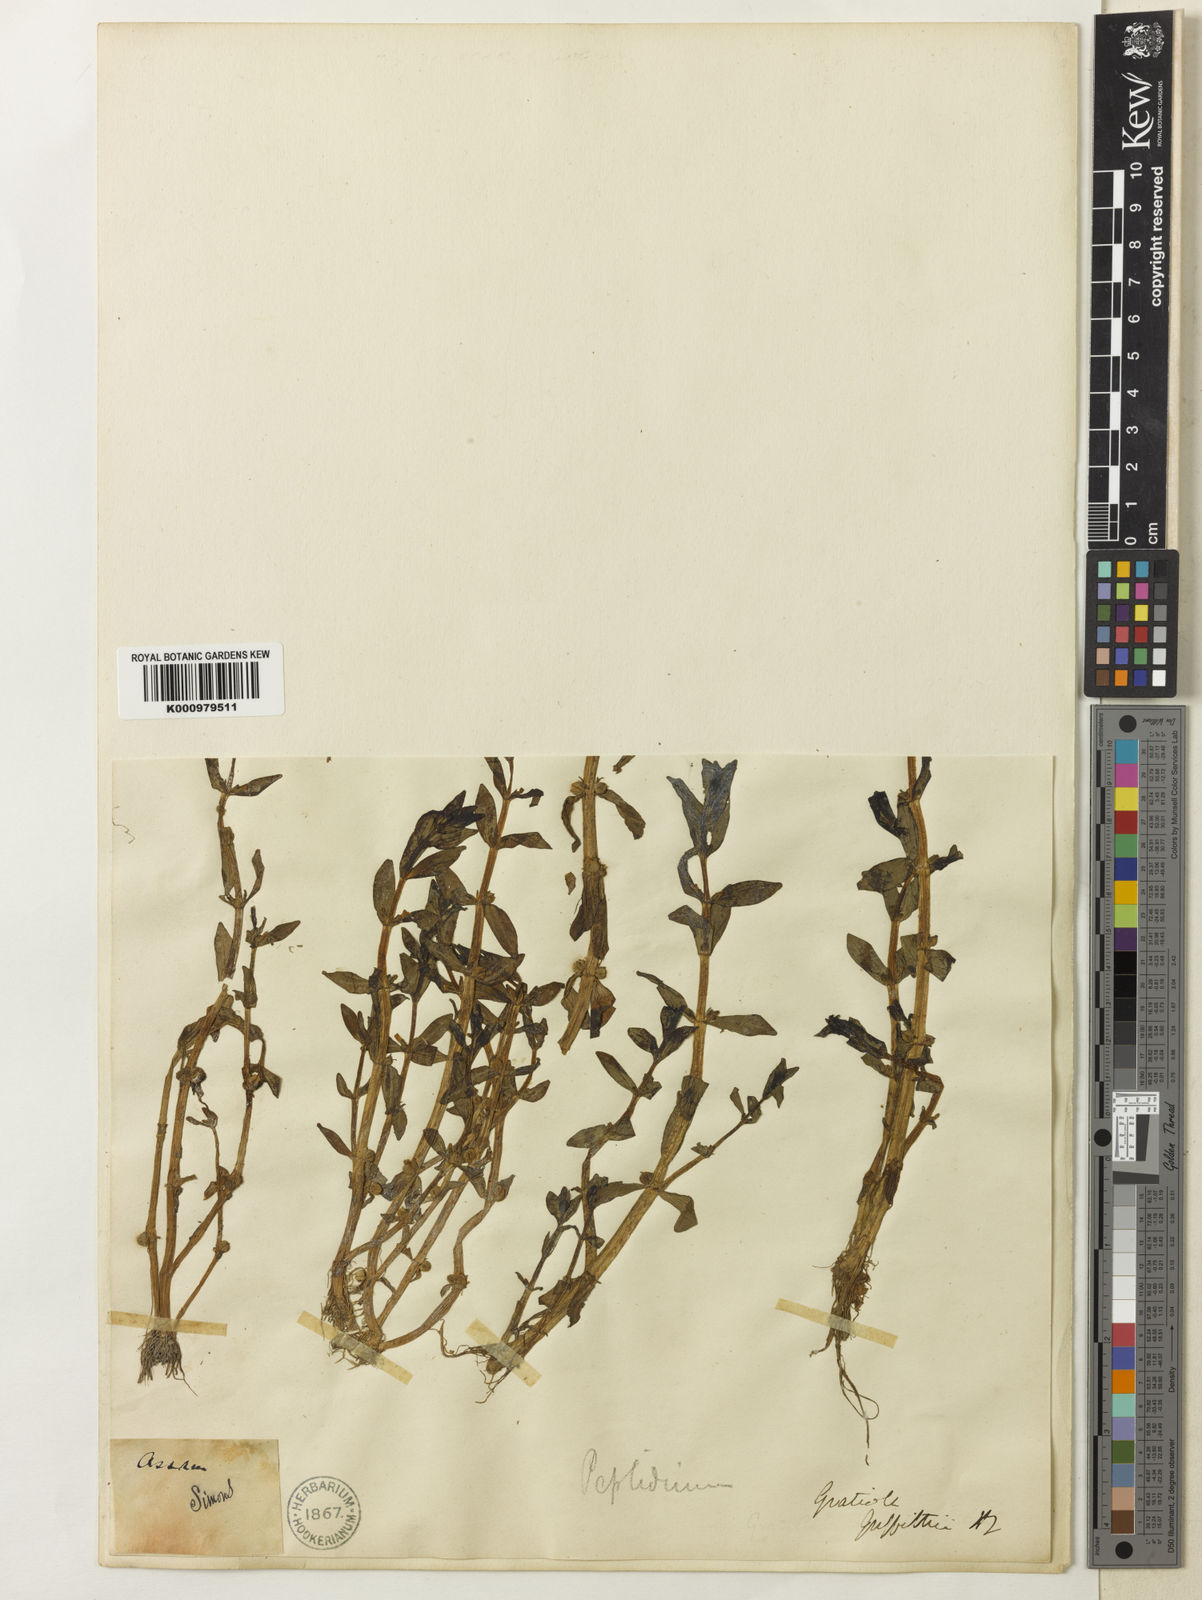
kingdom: Plantae
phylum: Tracheophyta
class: Magnoliopsida
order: Lamiales
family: Plantaginaceae
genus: Gratiola
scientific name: Gratiola griffithii
